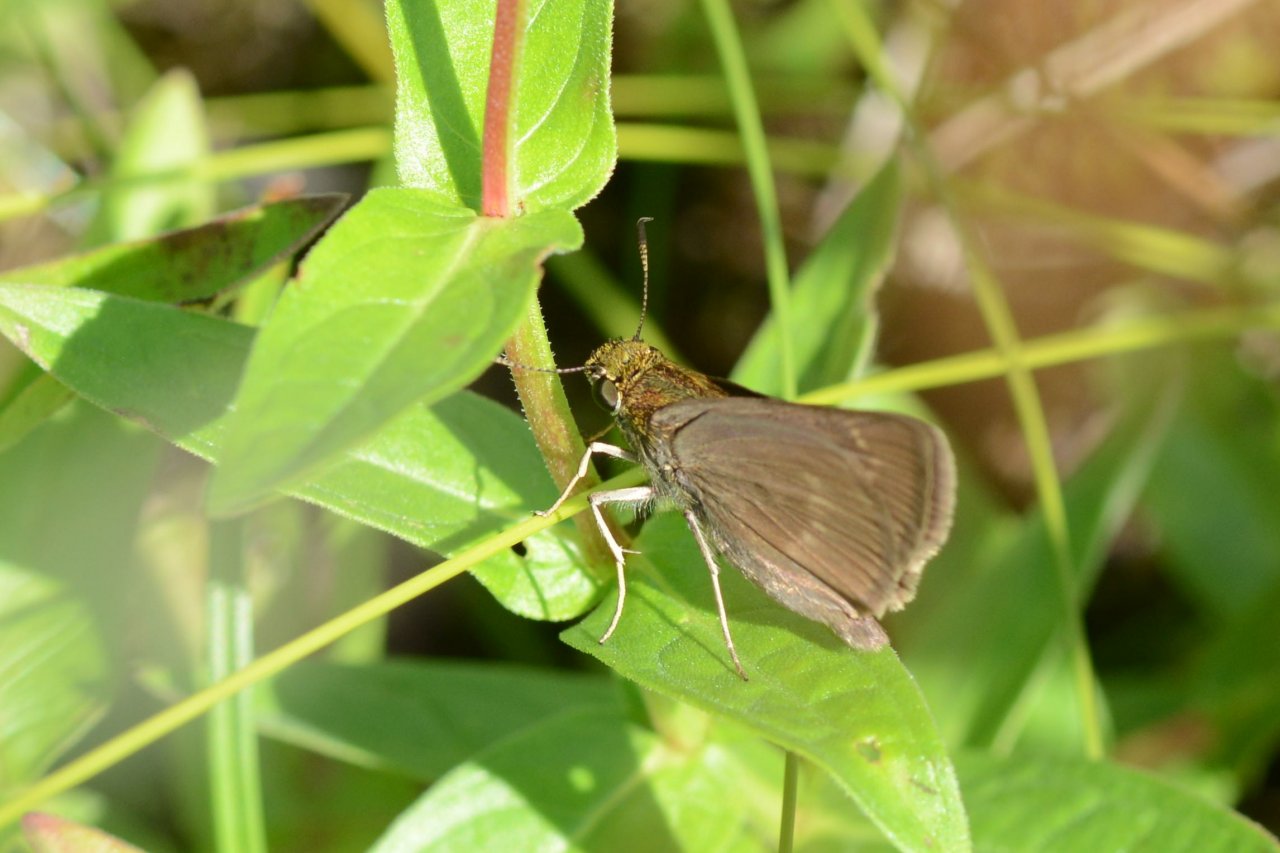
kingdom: Animalia
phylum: Arthropoda
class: Insecta
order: Lepidoptera
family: Hesperiidae
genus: Polites
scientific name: Polites egeremet
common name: Northern Broken-Dash
